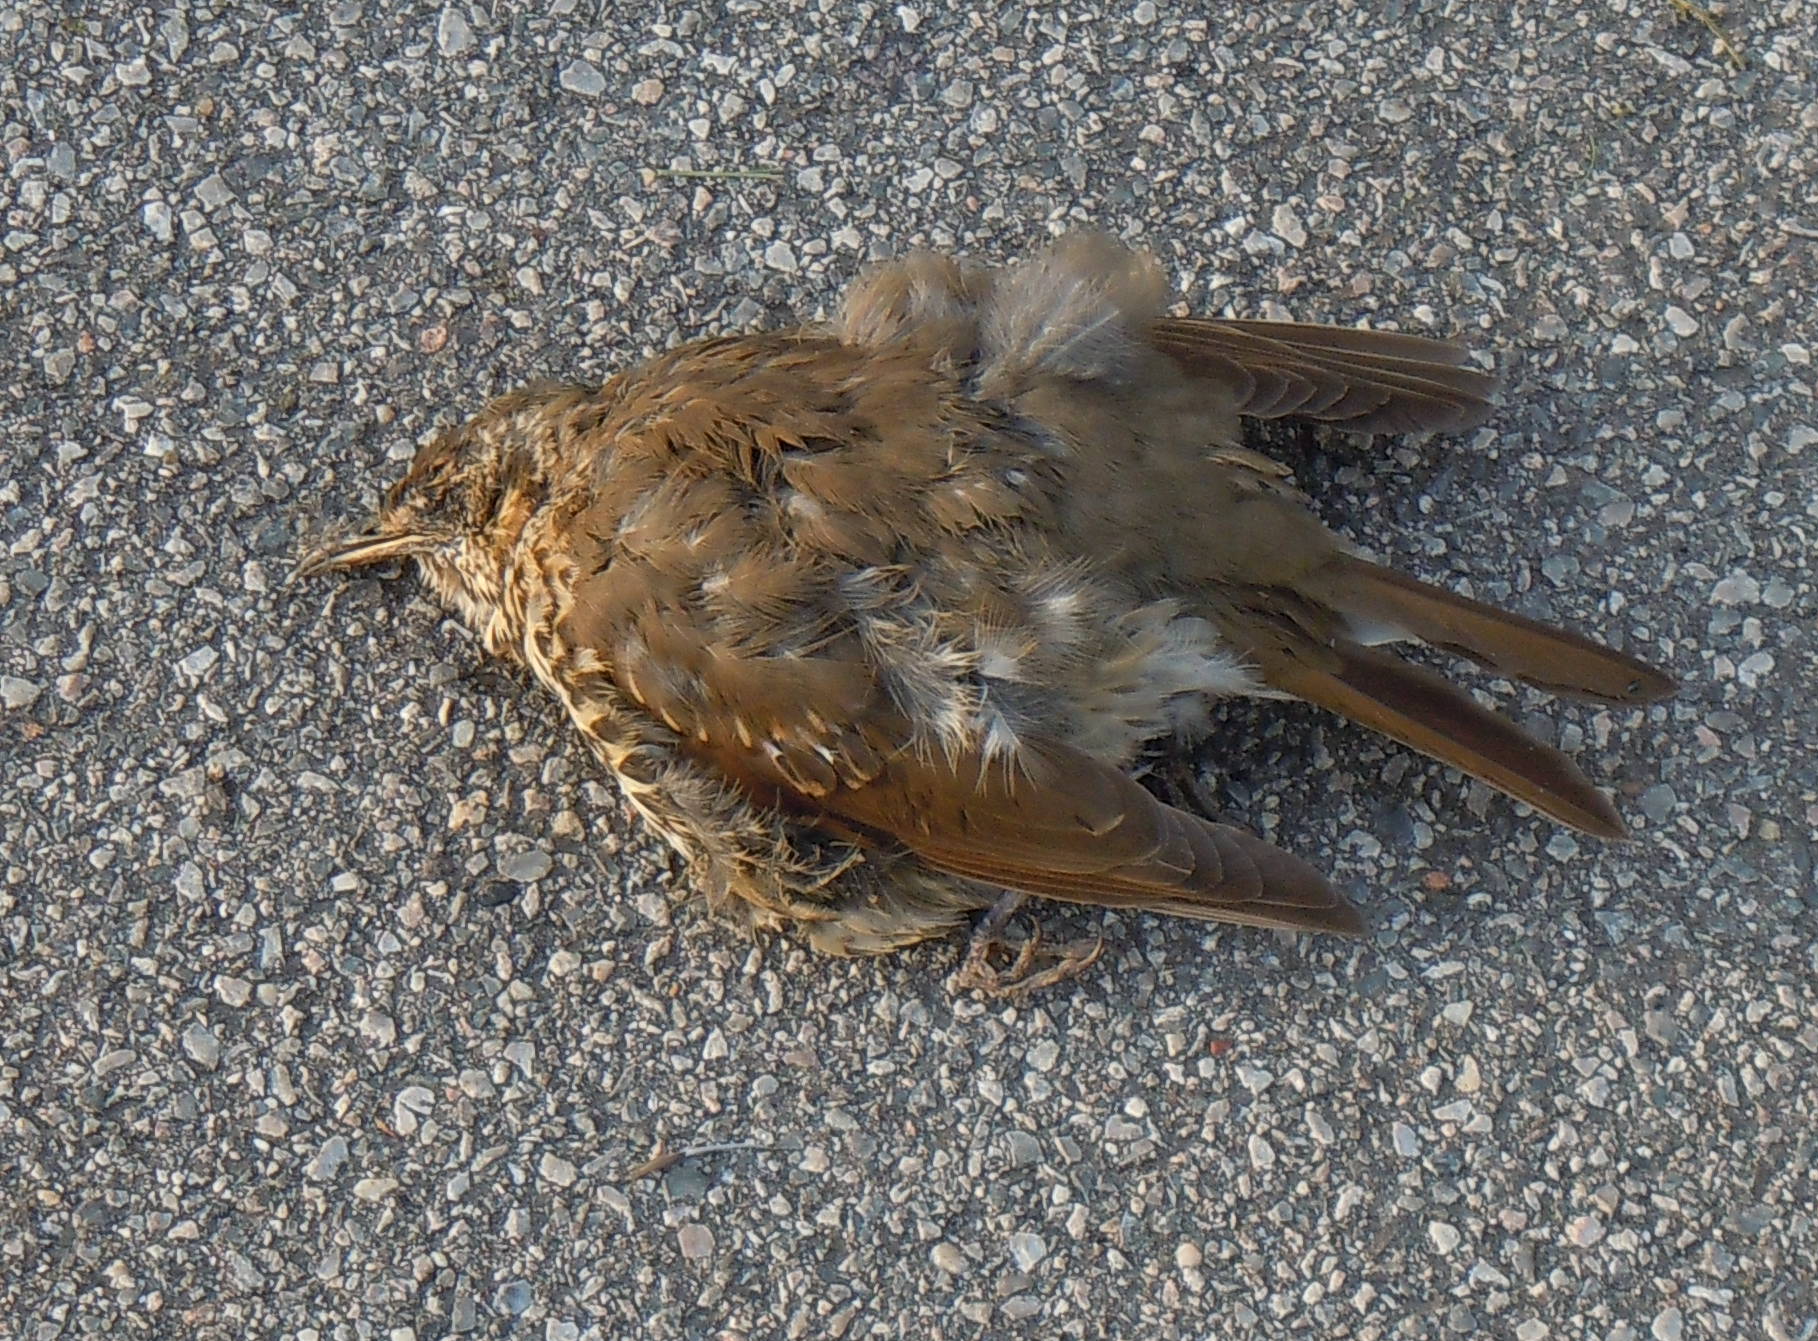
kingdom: Animalia
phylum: Chordata
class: Aves
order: Passeriformes
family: Turdidae
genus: Turdus
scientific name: Turdus philomelos
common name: Song thrush
